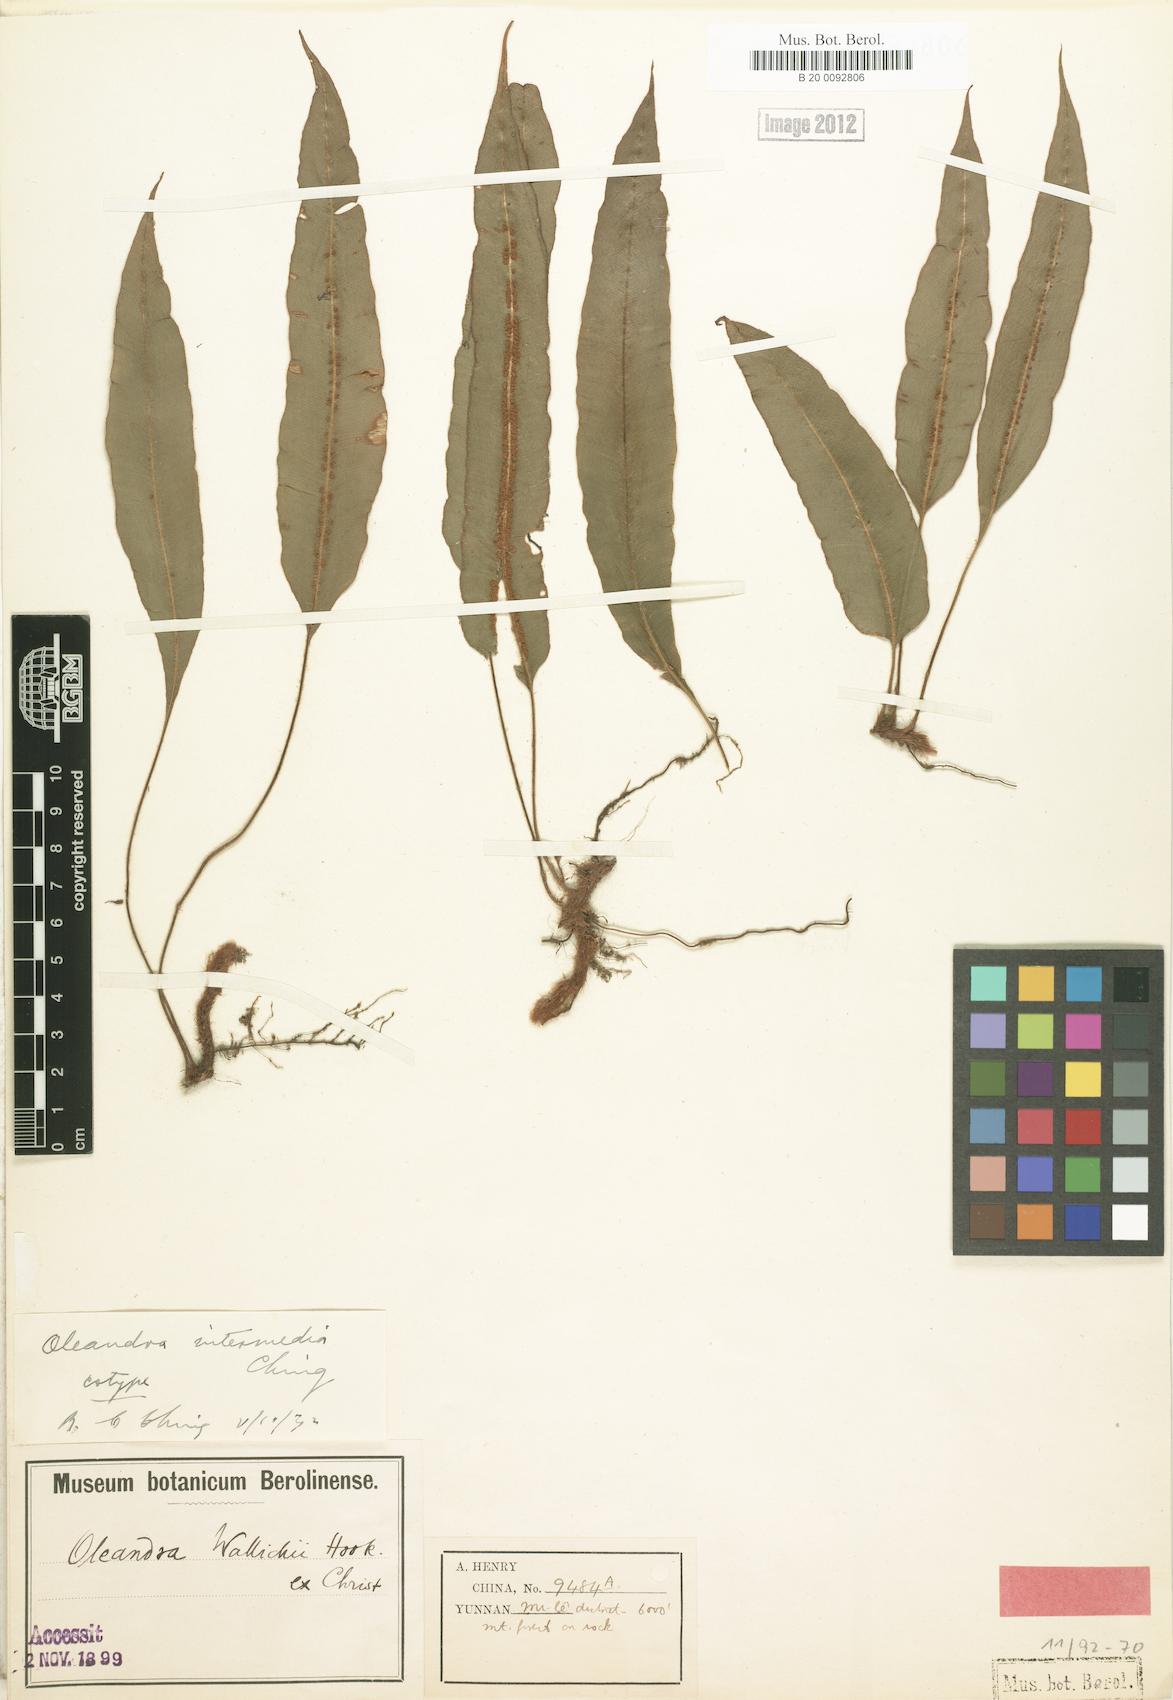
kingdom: Plantae
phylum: Tracheophyta
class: Polypodiopsida
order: Polypodiales
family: Oleandraceae
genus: Oleandra
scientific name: Oleandra cumingii
